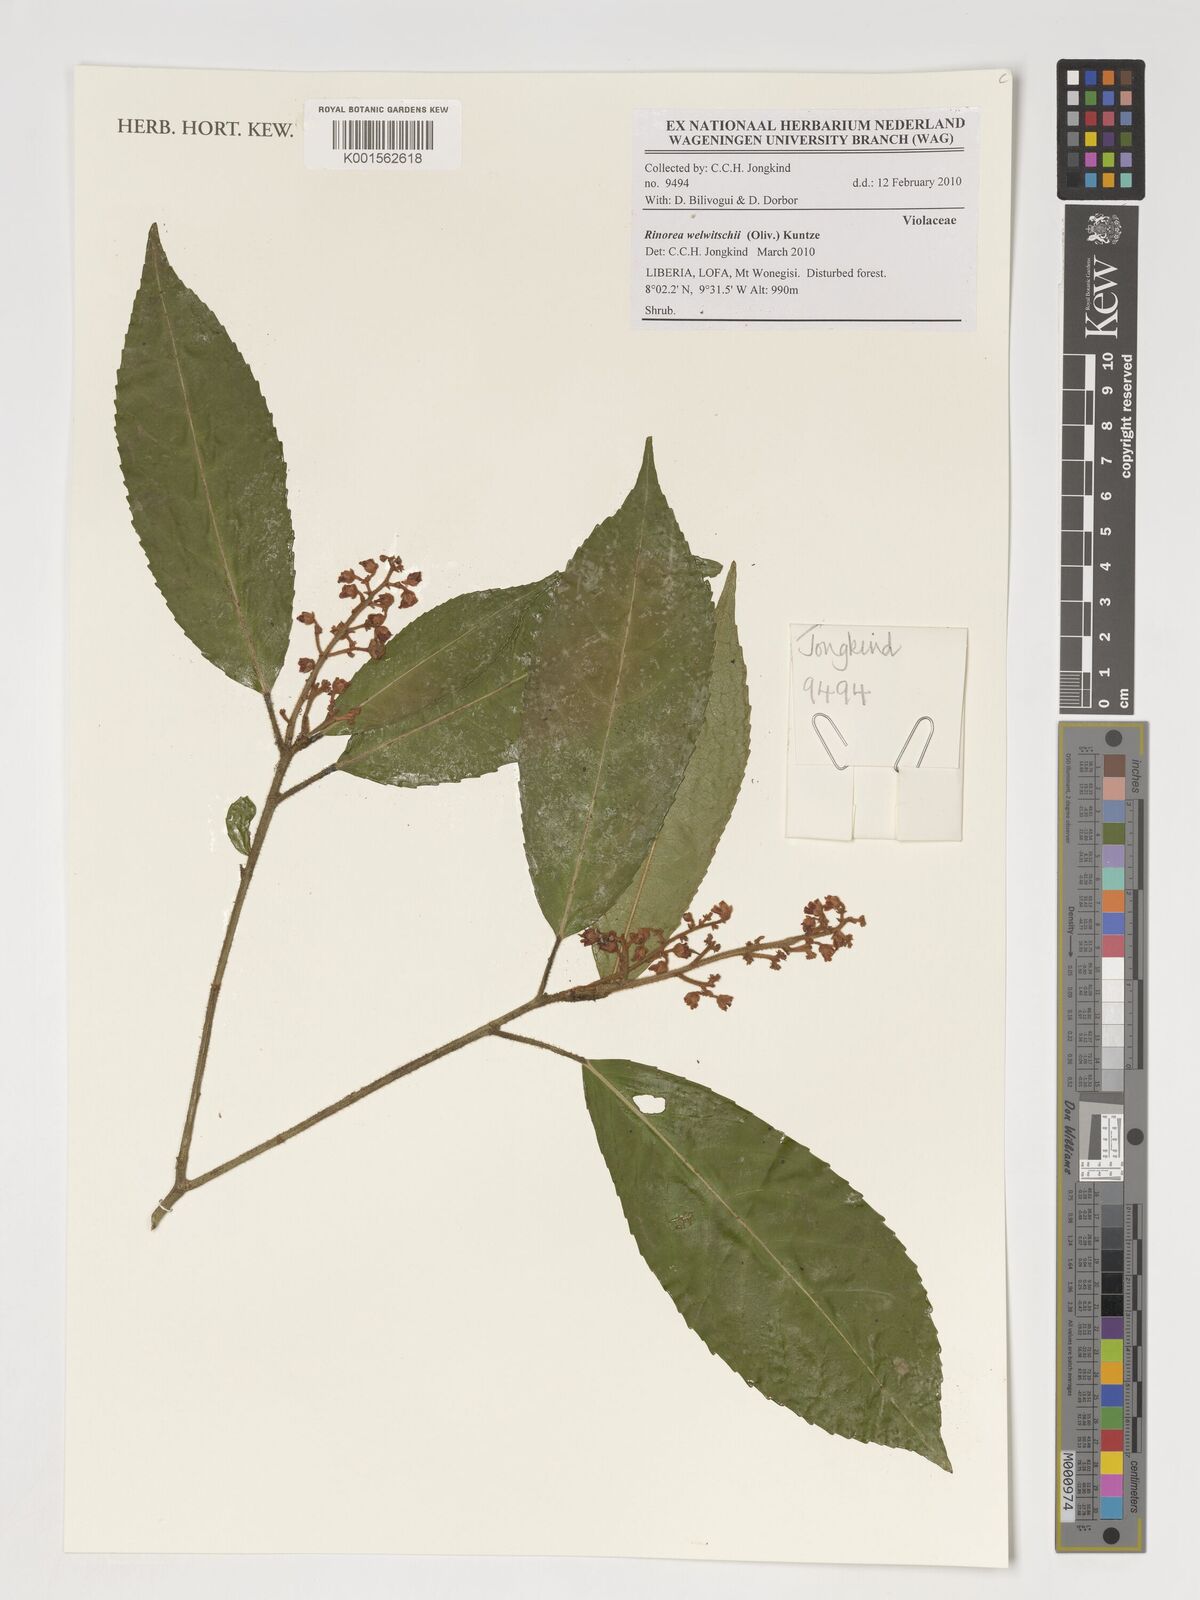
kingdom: Plantae
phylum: Tracheophyta
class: Magnoliopsida
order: Malpighiales
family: Violaceae
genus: Rinorea
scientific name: Rinorea welwitschii
